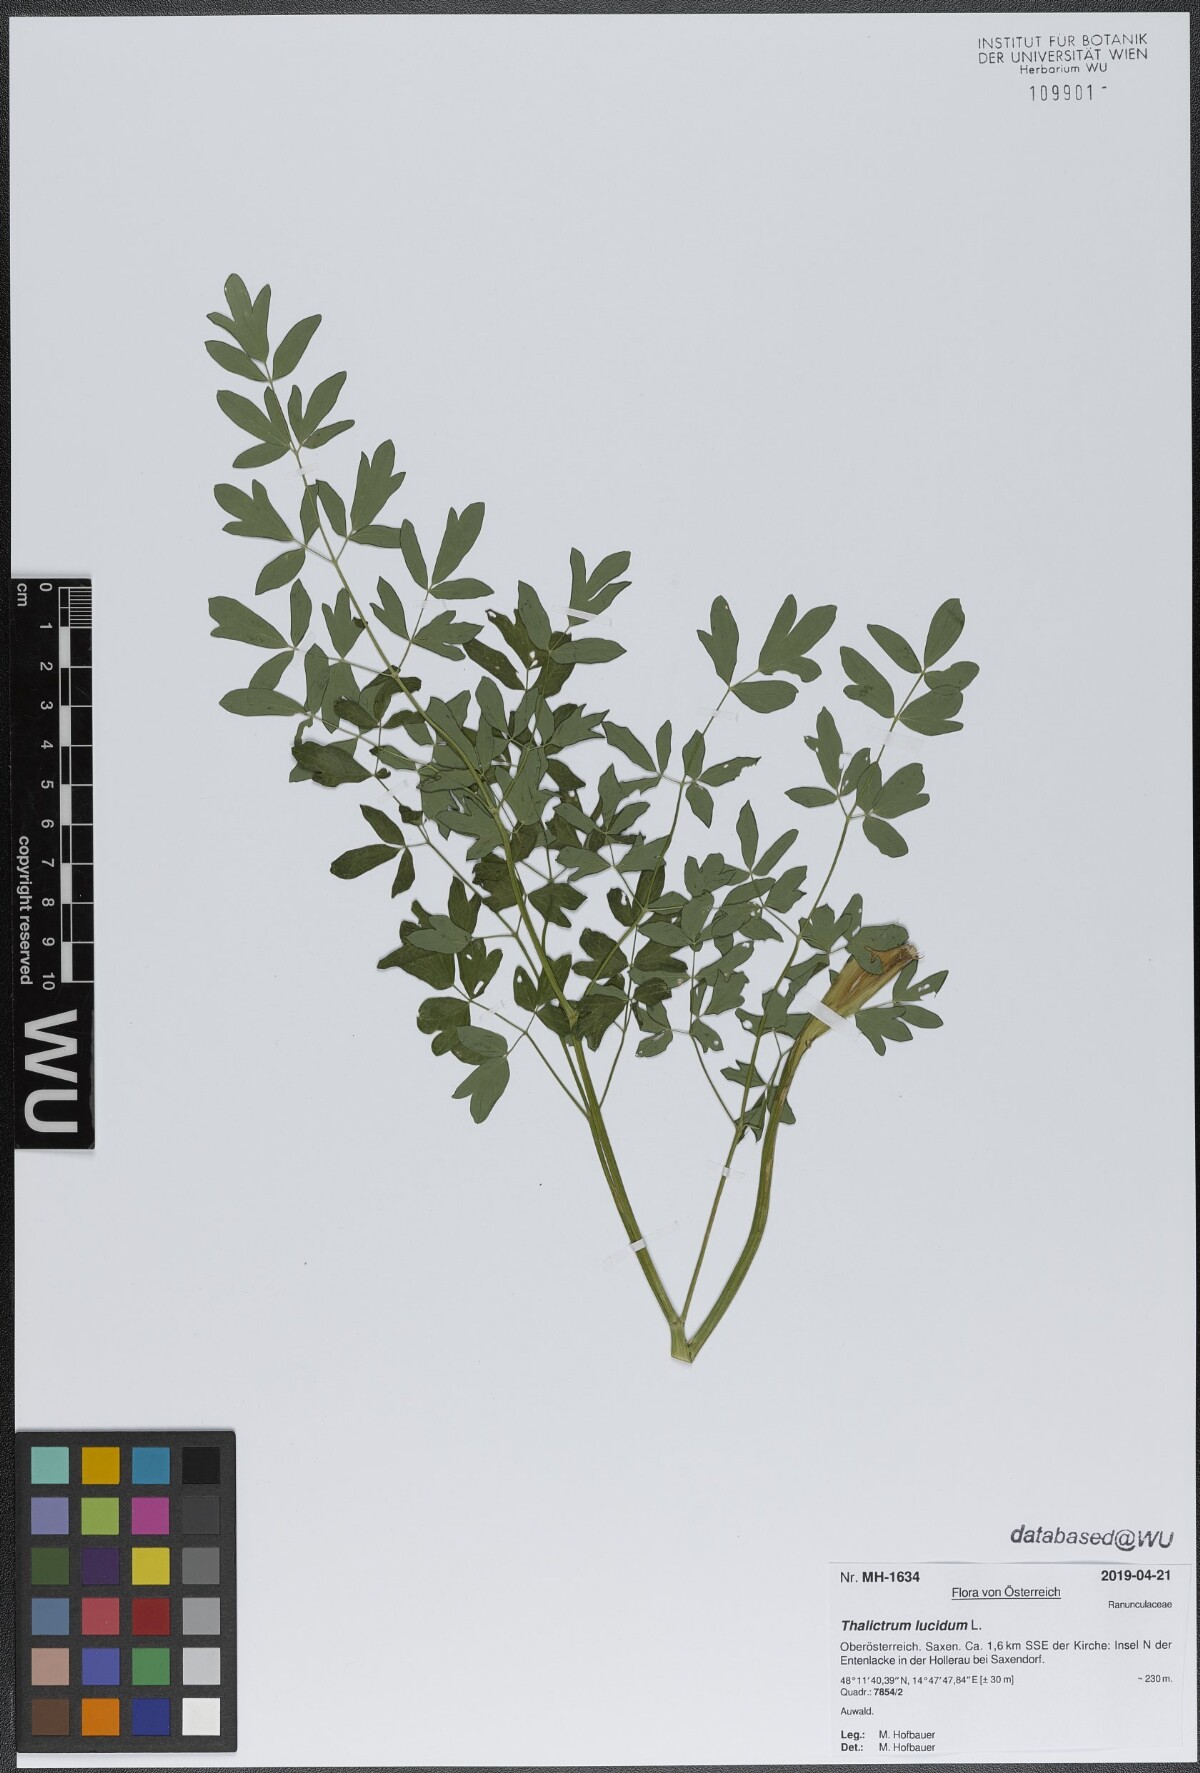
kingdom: Plantae
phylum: Tracheophyta
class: Magnoliopsida
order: Ranunculales
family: Ranunculaceae
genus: Thalictrum
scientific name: Thalictrum lucidum
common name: Shining meadow-rue
